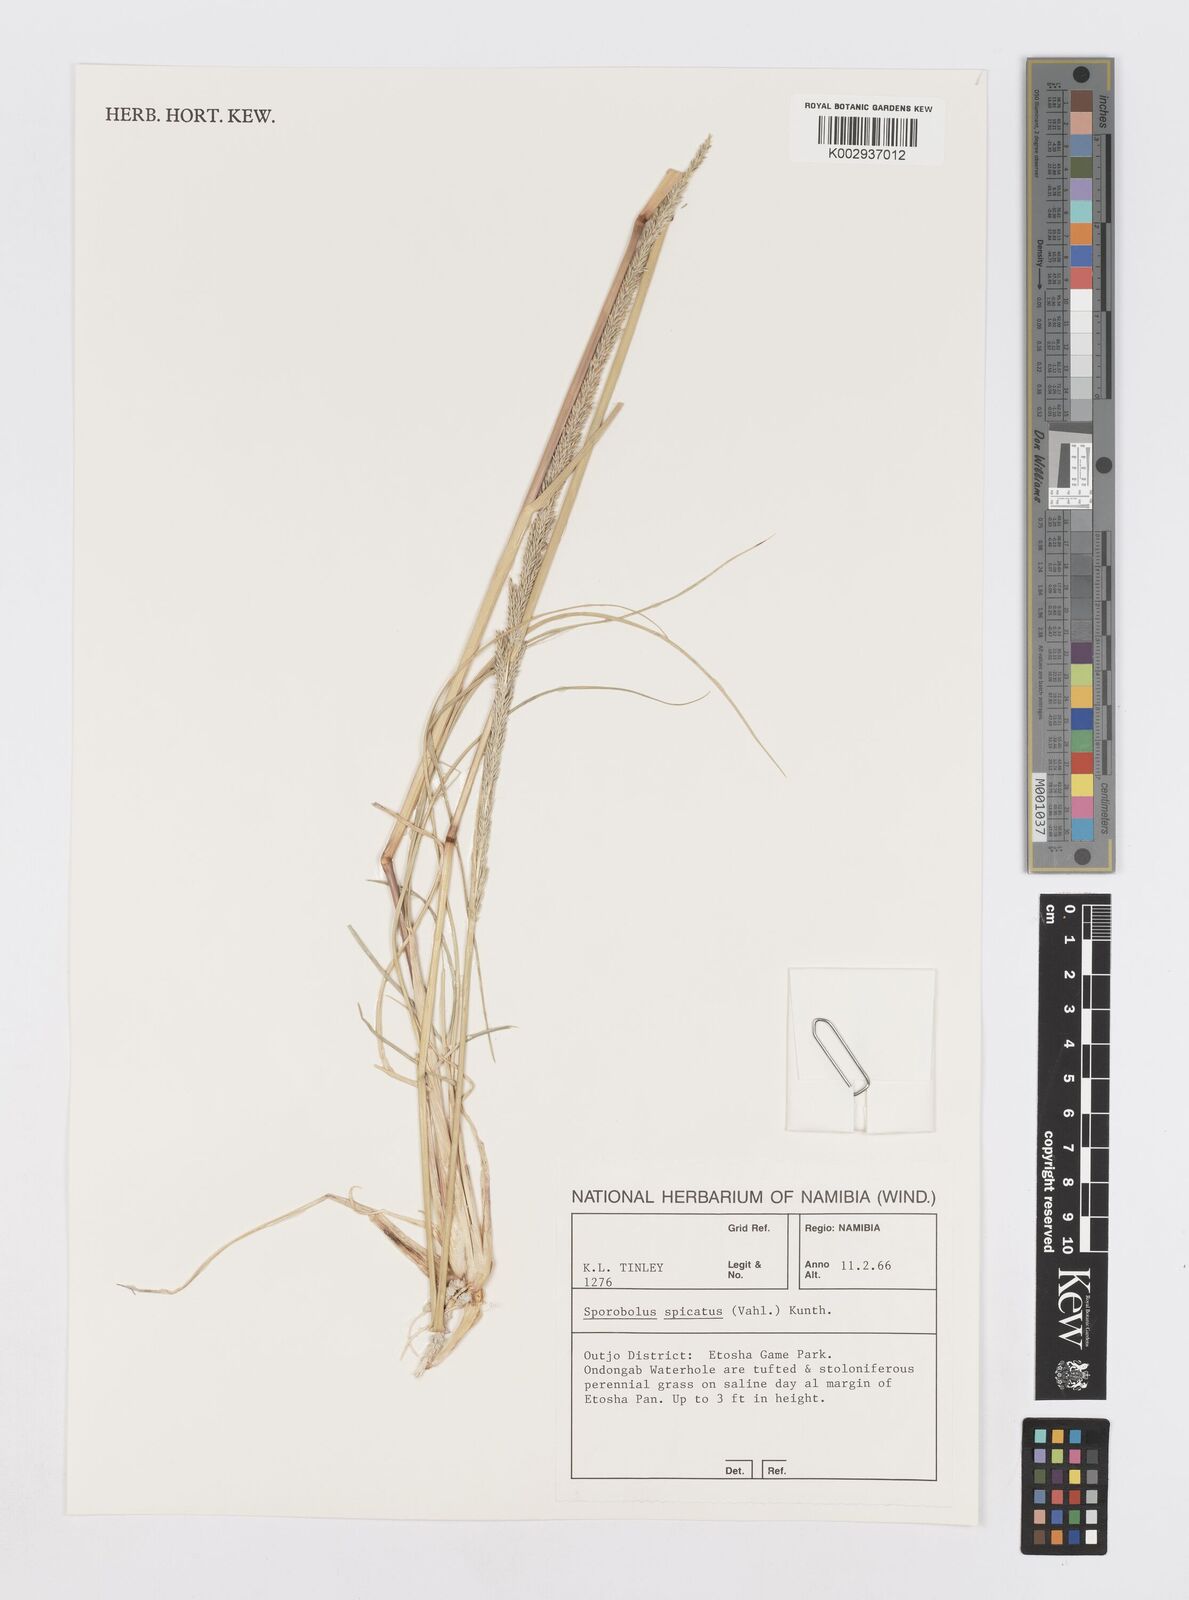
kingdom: Plantae
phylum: Tracheophyta
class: Liliopsida
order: Poales
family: Poaceae
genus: Sporobolus
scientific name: Sporobolus spicatus
